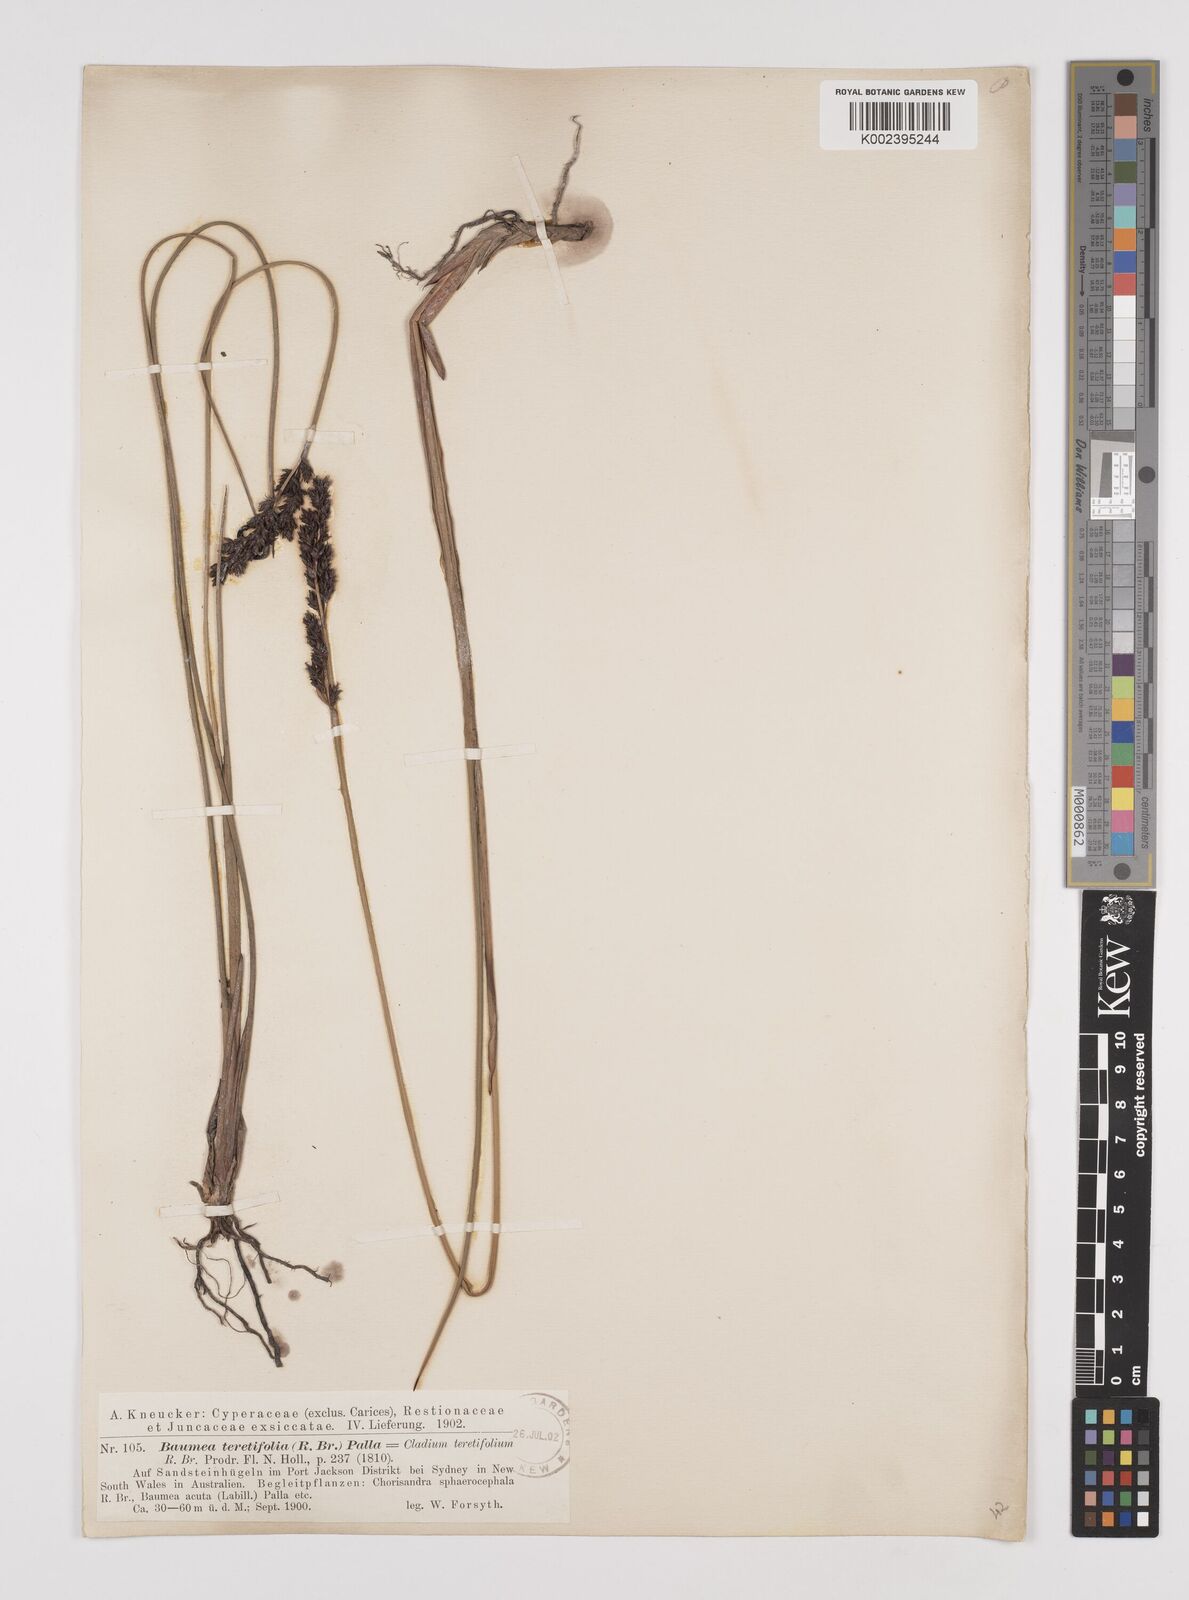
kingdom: Plantae
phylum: Tracheophyta
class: Liliopsida
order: Poales
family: Cyperaceae
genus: Machaerina
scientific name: Machaerina teretifolia
